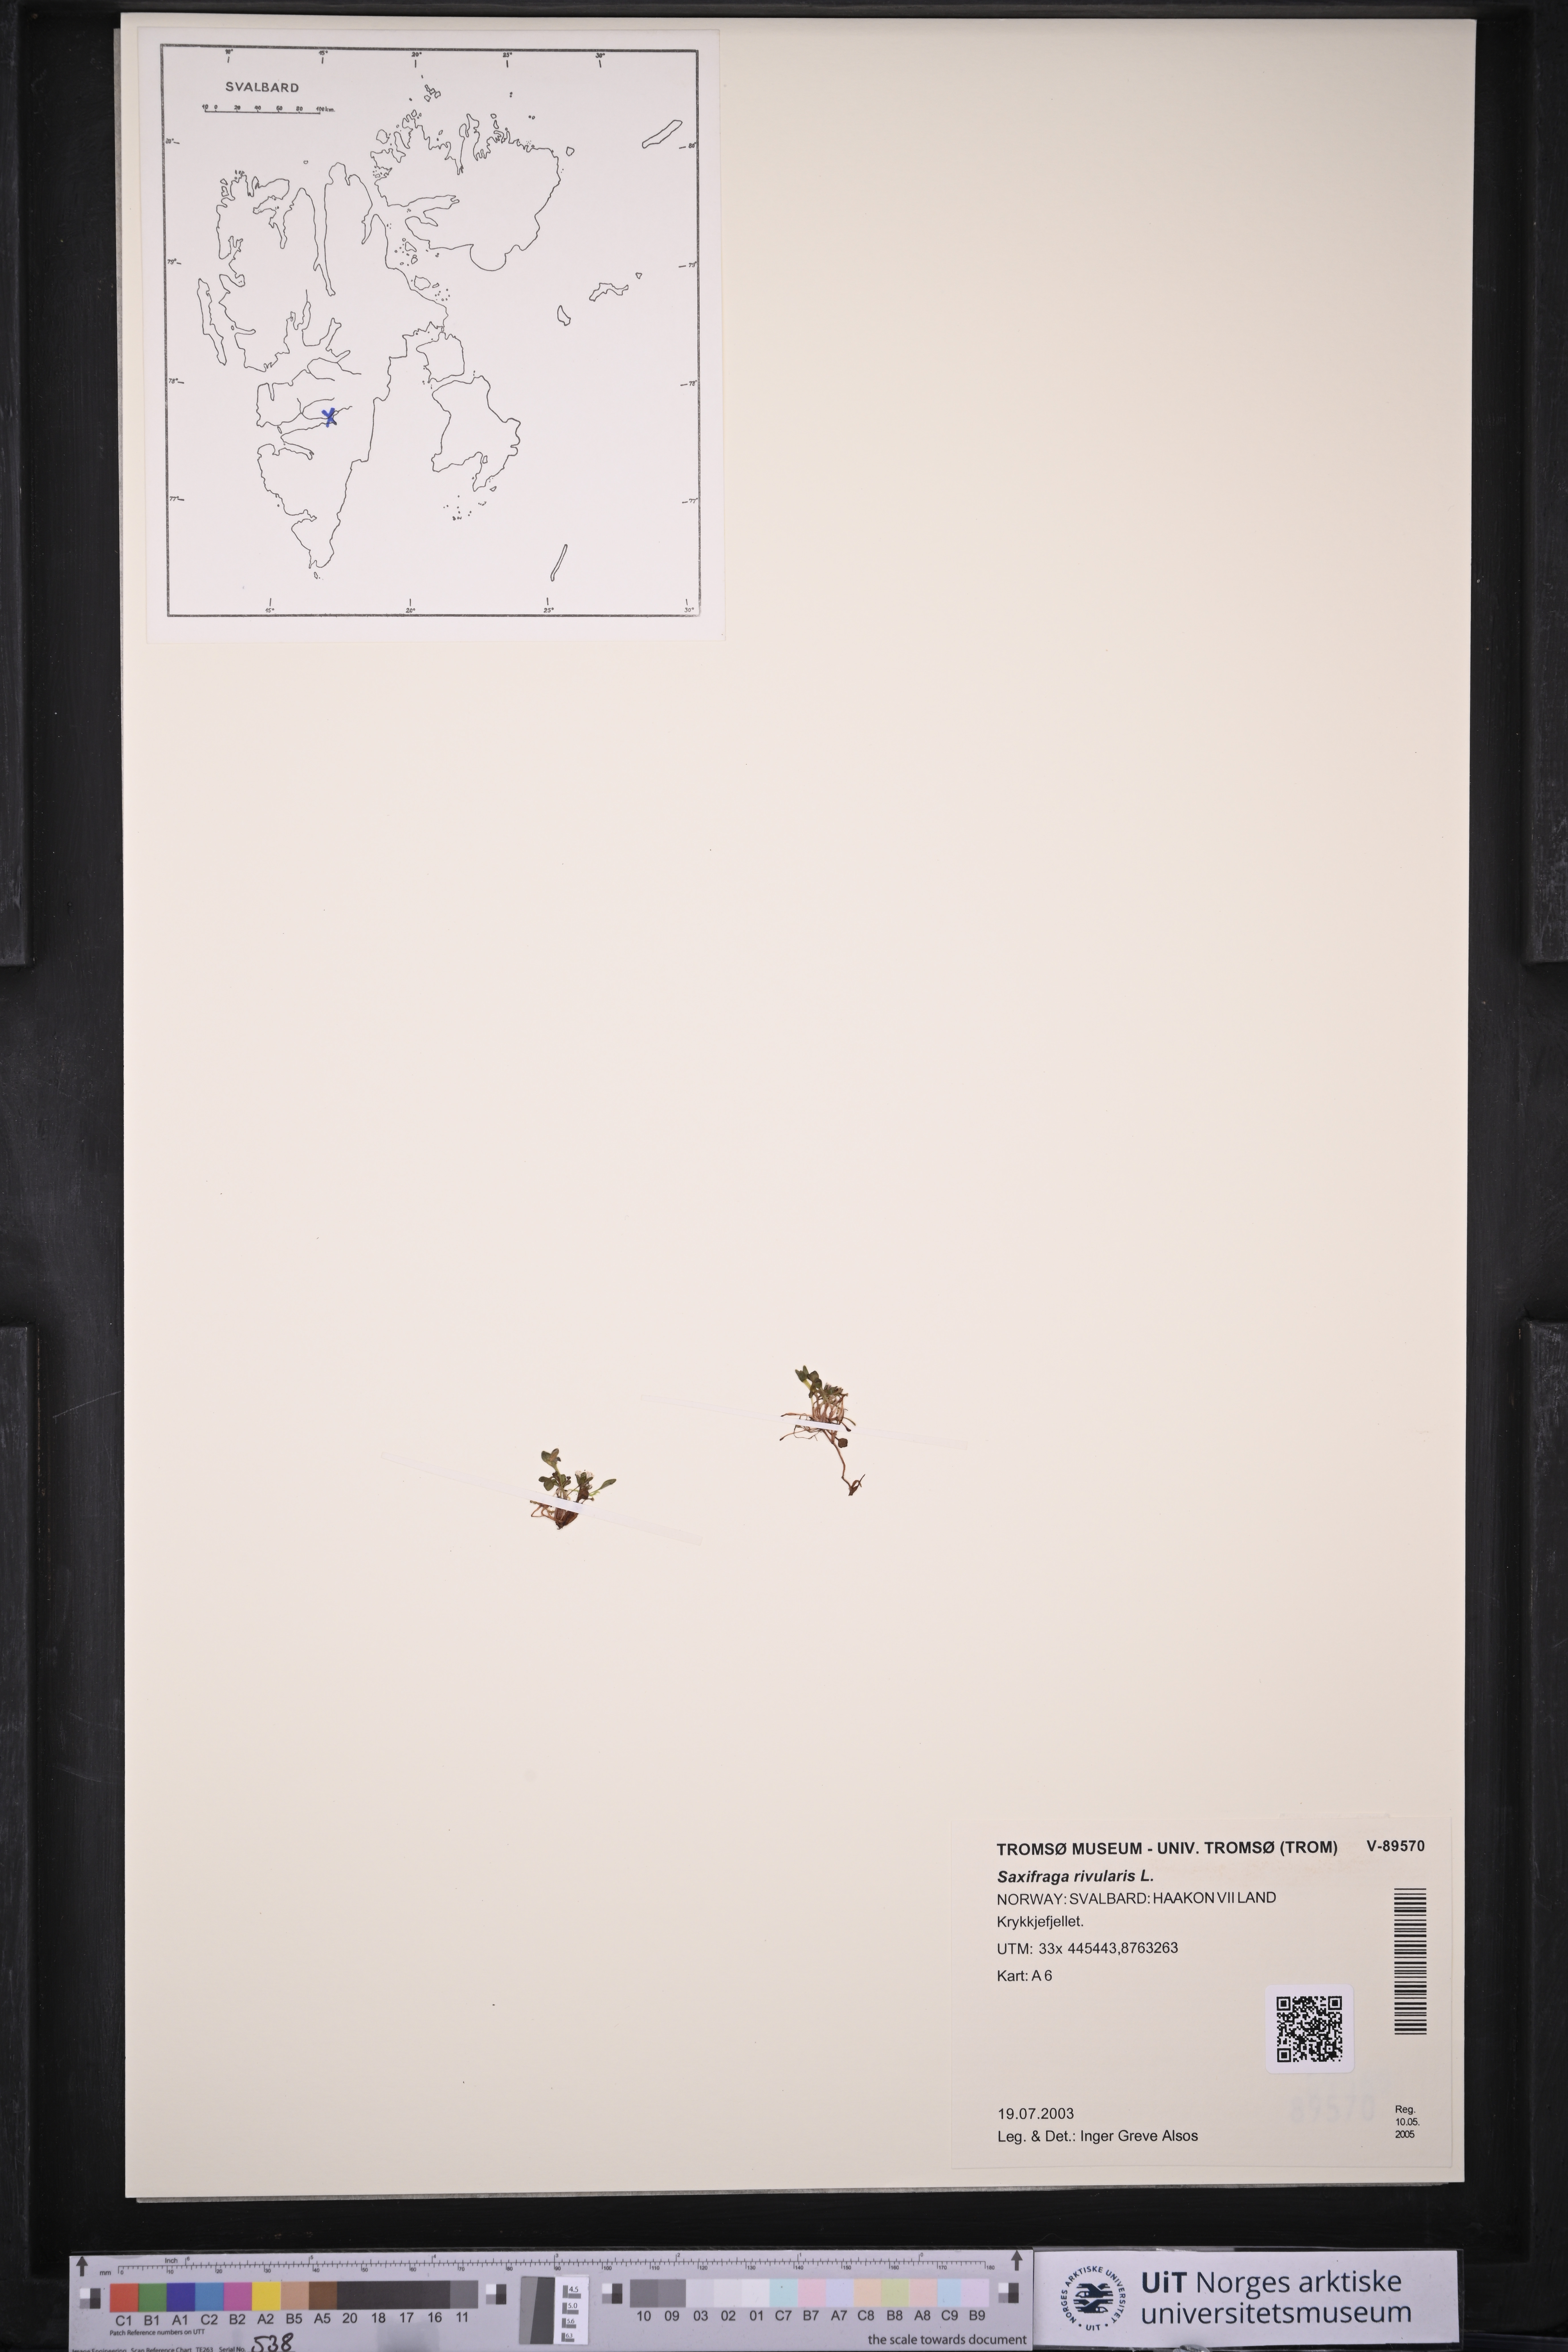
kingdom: Plantae
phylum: Tracheophyta
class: Magnoliopsida
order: Saxifragales
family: Saxifragaceae
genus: Saxifraga
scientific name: Saxifraga rivularis
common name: Highland saxifrage
